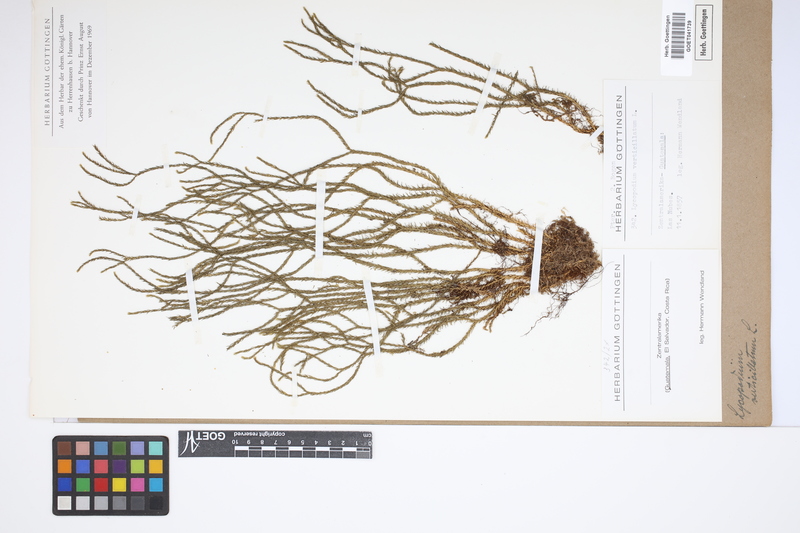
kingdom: Plantae
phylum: Tracheophyta
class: Lycopodiopsida
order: Lycopodiales
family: Lycopodiaceae
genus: Phlegmariurus
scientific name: Phlegmariurus verticillatus
